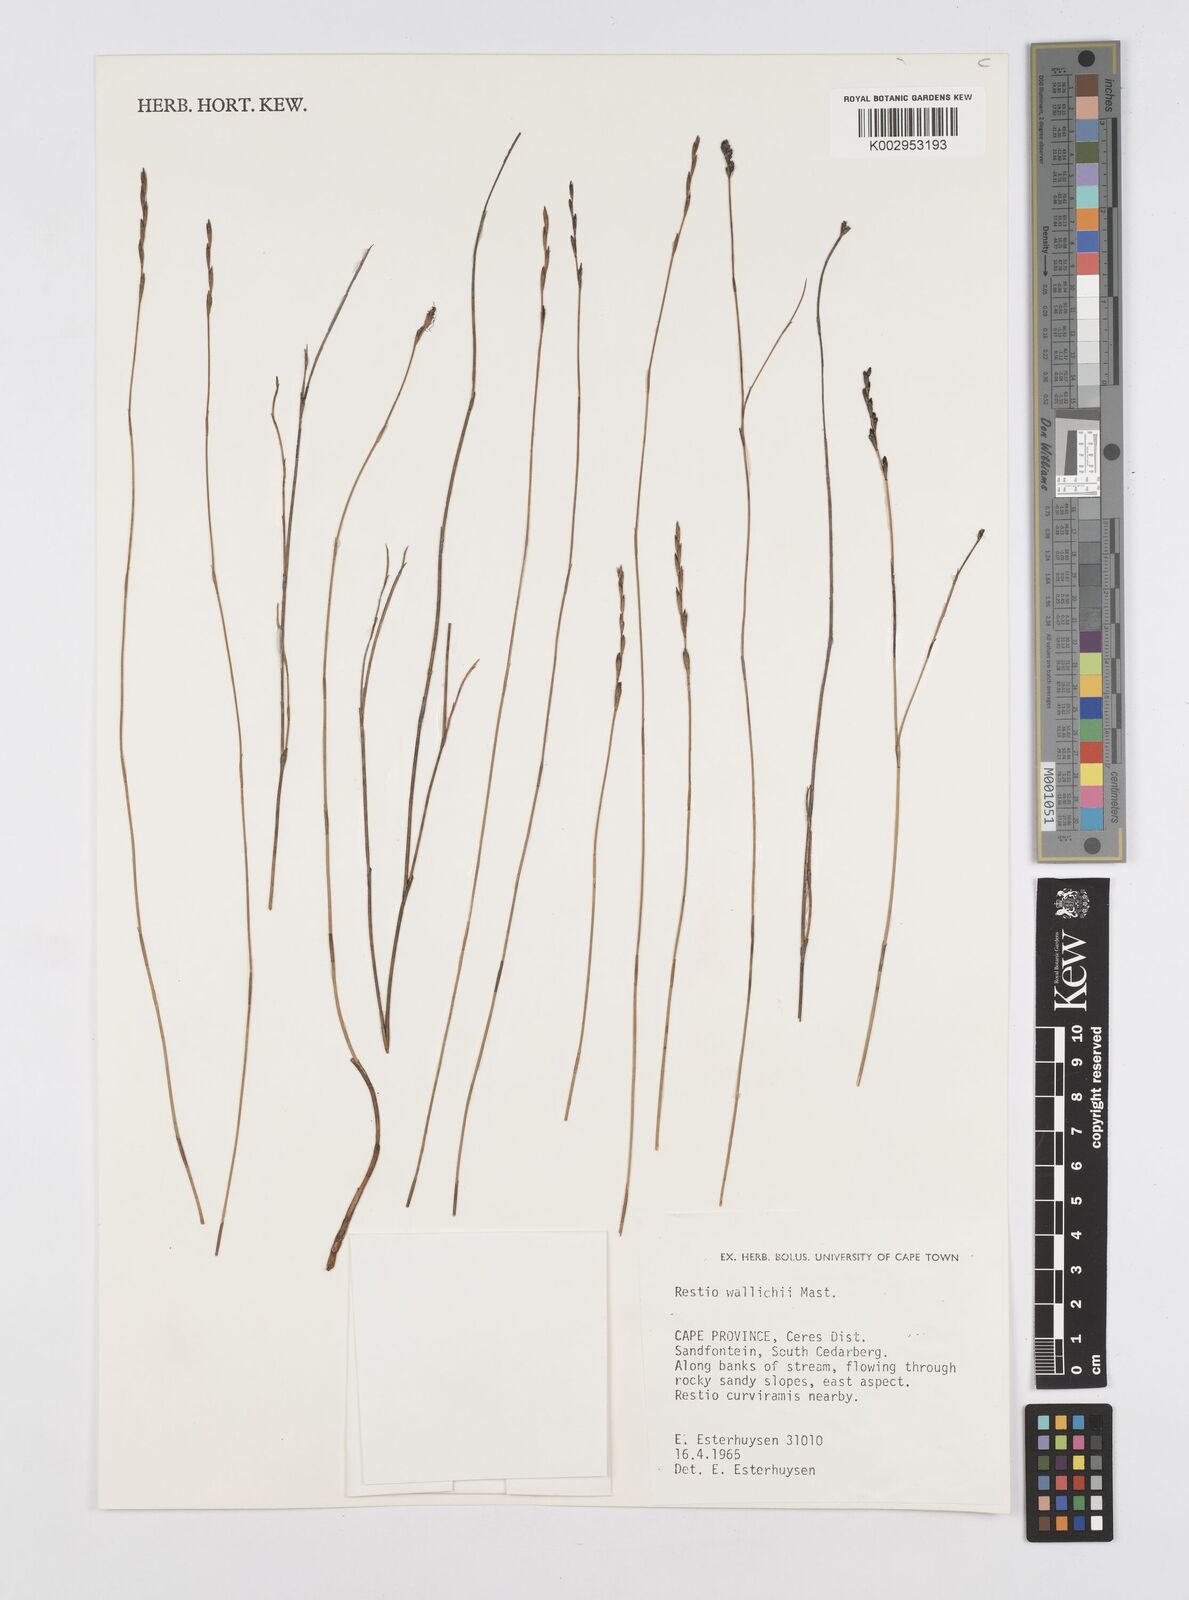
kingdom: Plantae
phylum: Tracheophyta
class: Liliopsida
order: Poales
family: Restionaceae
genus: Restio
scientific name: Restio wallichii
